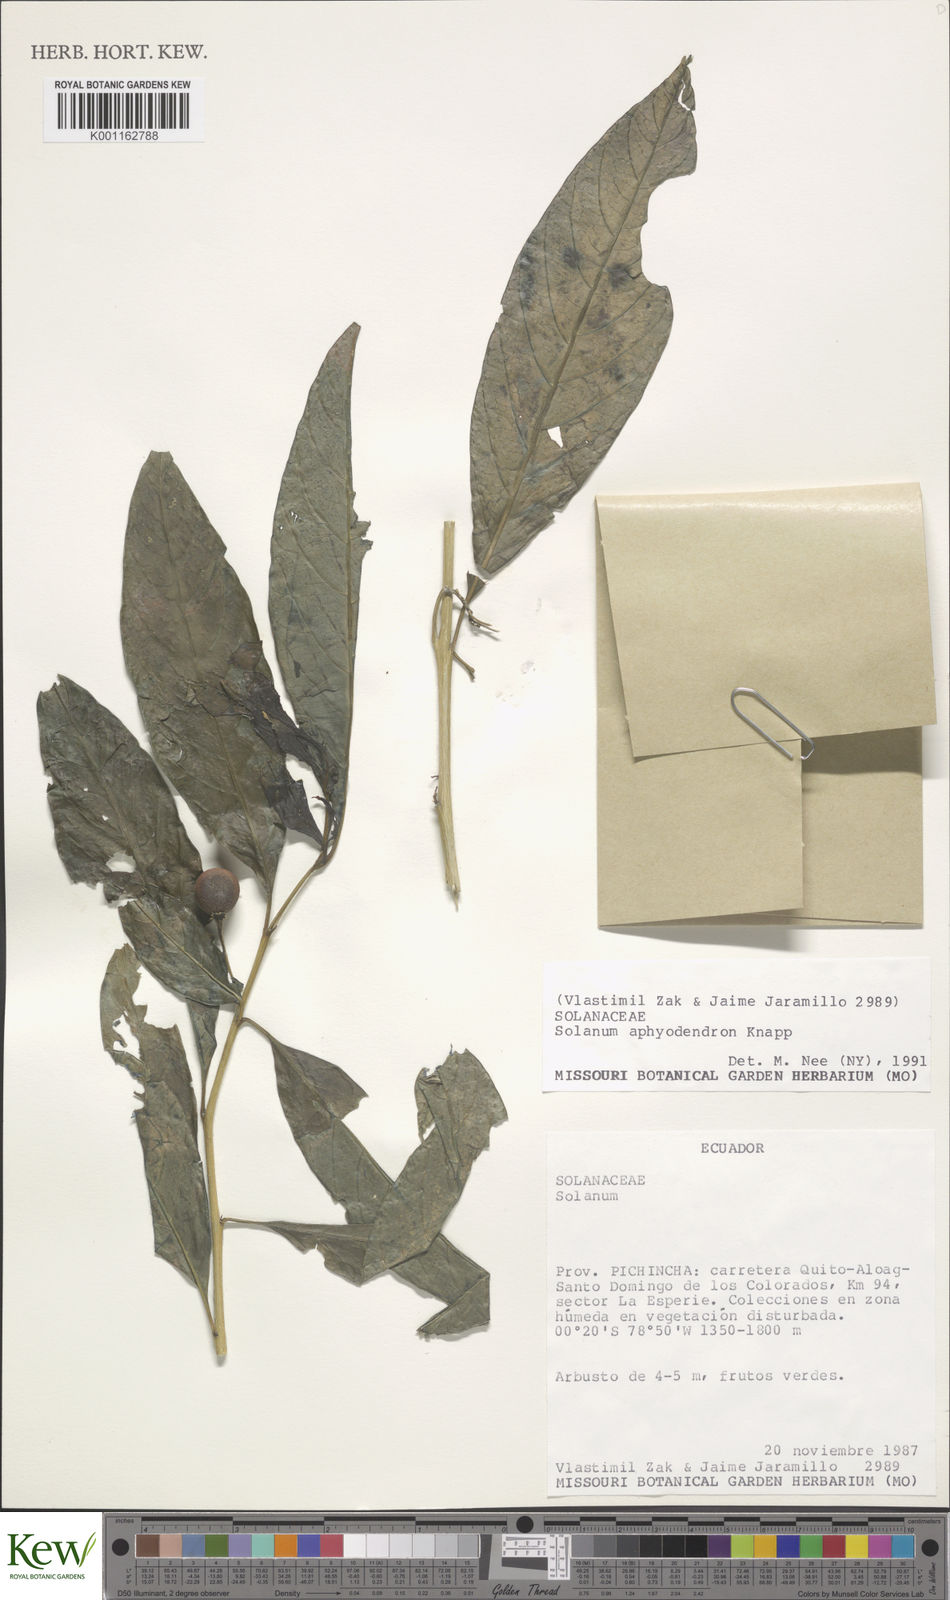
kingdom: Plantae
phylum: Tracheophyta
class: Magnoliopsida
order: Solanales
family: Solanaceae
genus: Solanum
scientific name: Solanum aphyodendron
